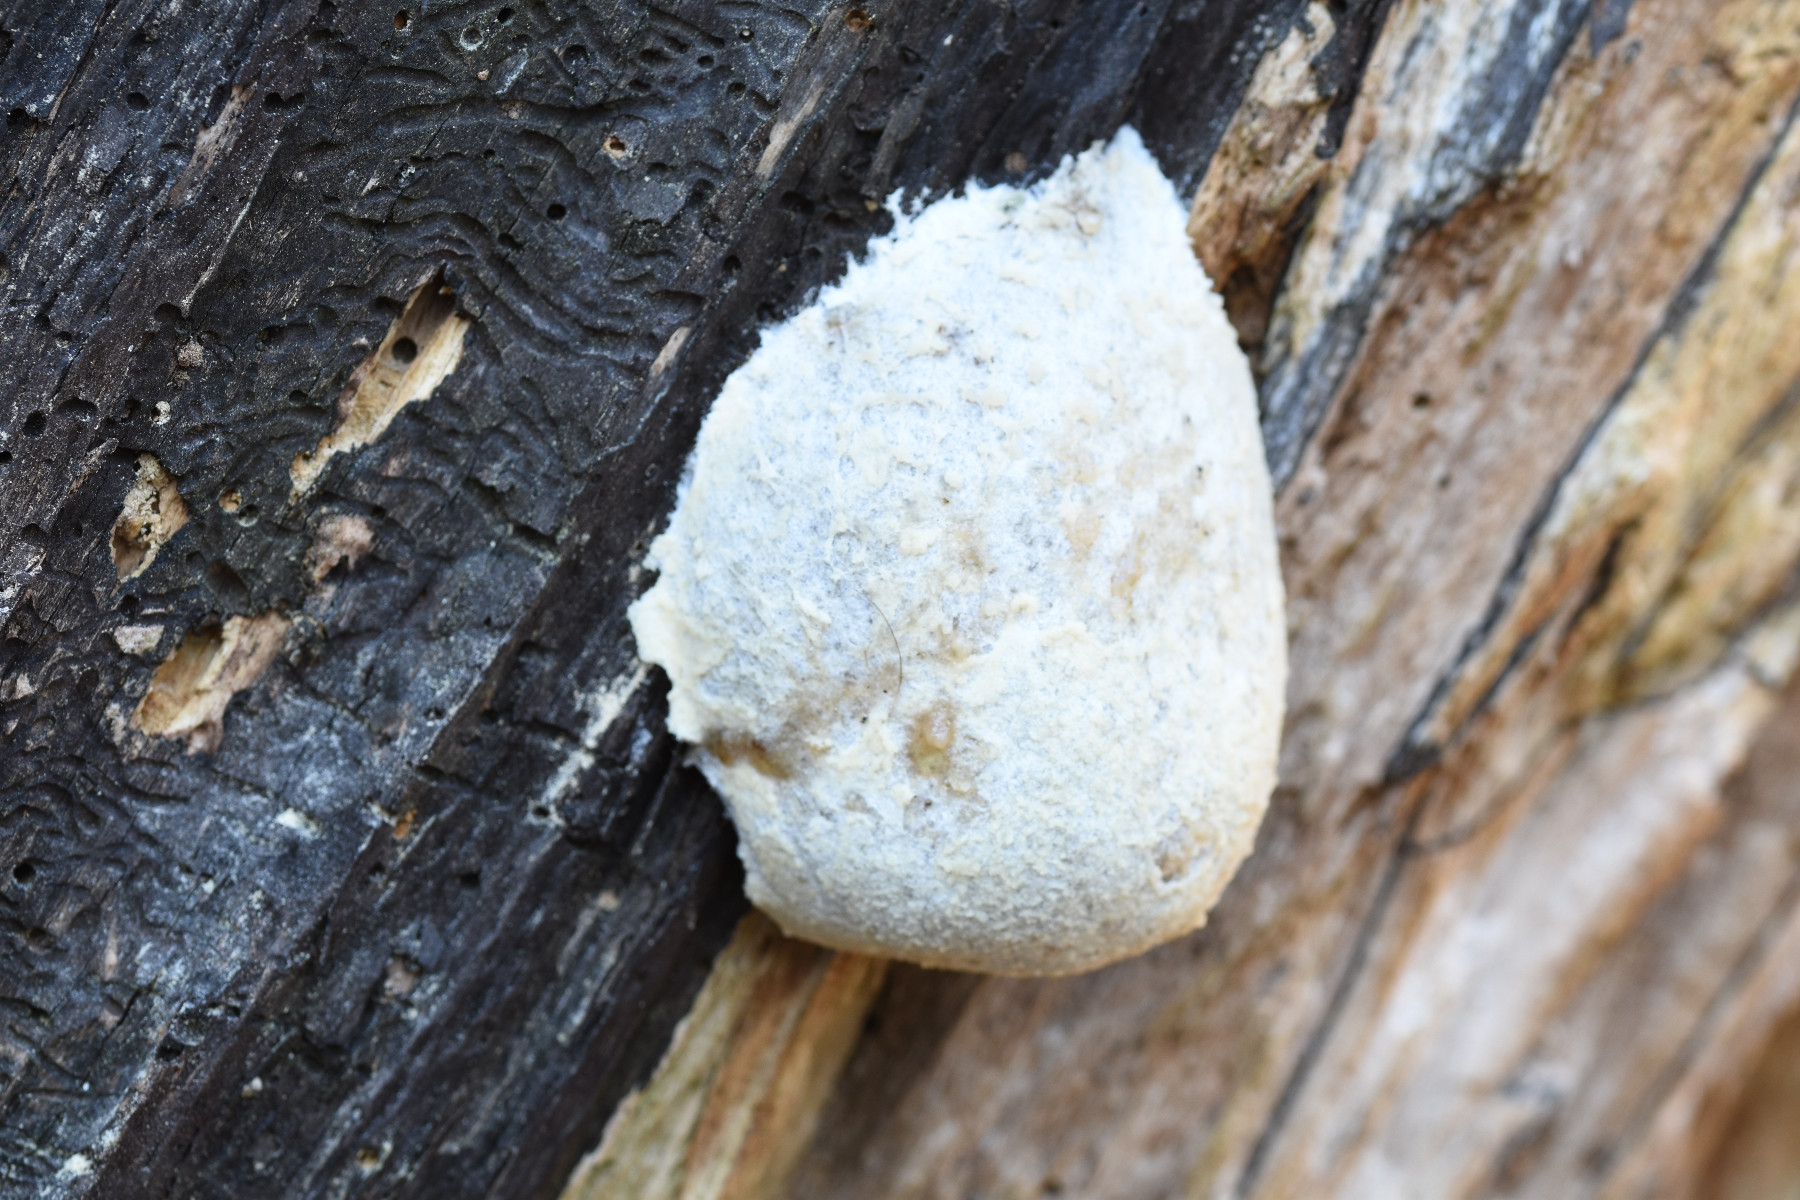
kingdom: Protozoa
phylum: Mycetozoa
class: Myxomycetes
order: Cribrariales
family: Tubiferaceae
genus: Reticularia
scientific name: Reticularia lycoperdon
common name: skinnende støvpude
